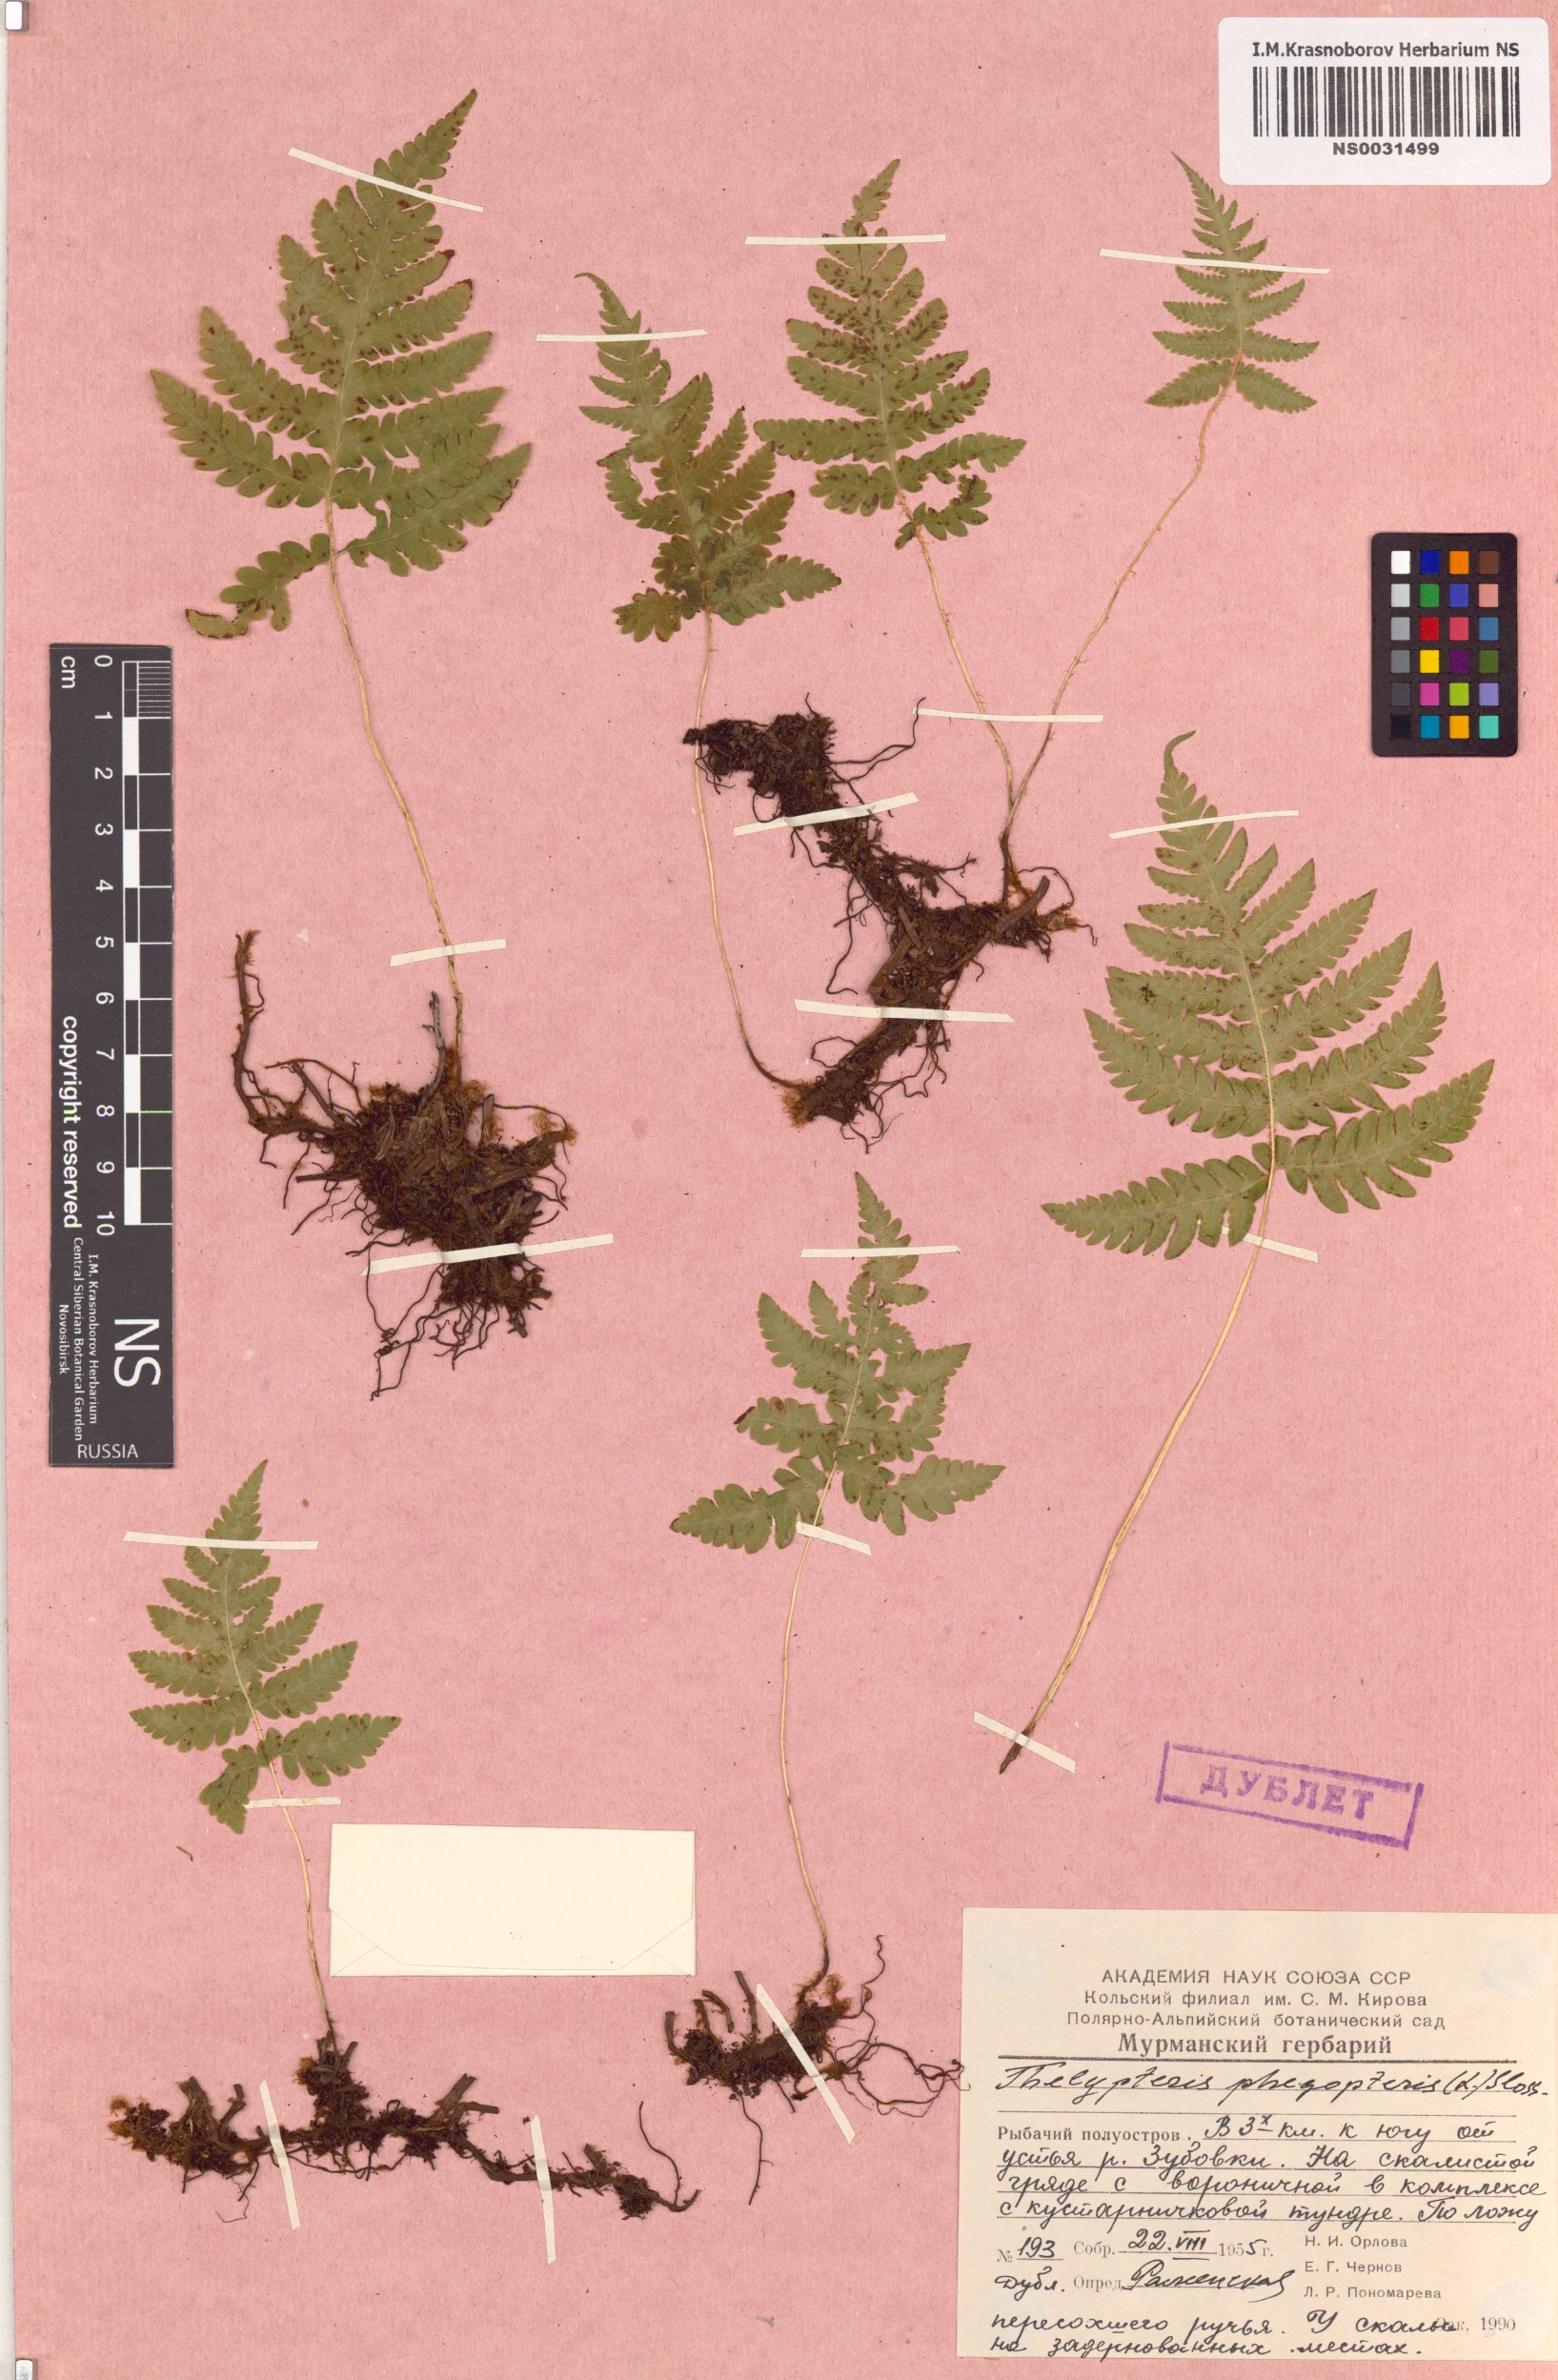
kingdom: Plantae
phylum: Tracheophyta
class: Polypodiopsida
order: Polypodiales
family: Thelypteridaceae
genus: Phegopteris
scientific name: Phegopteris connectilis
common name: Beech fern
